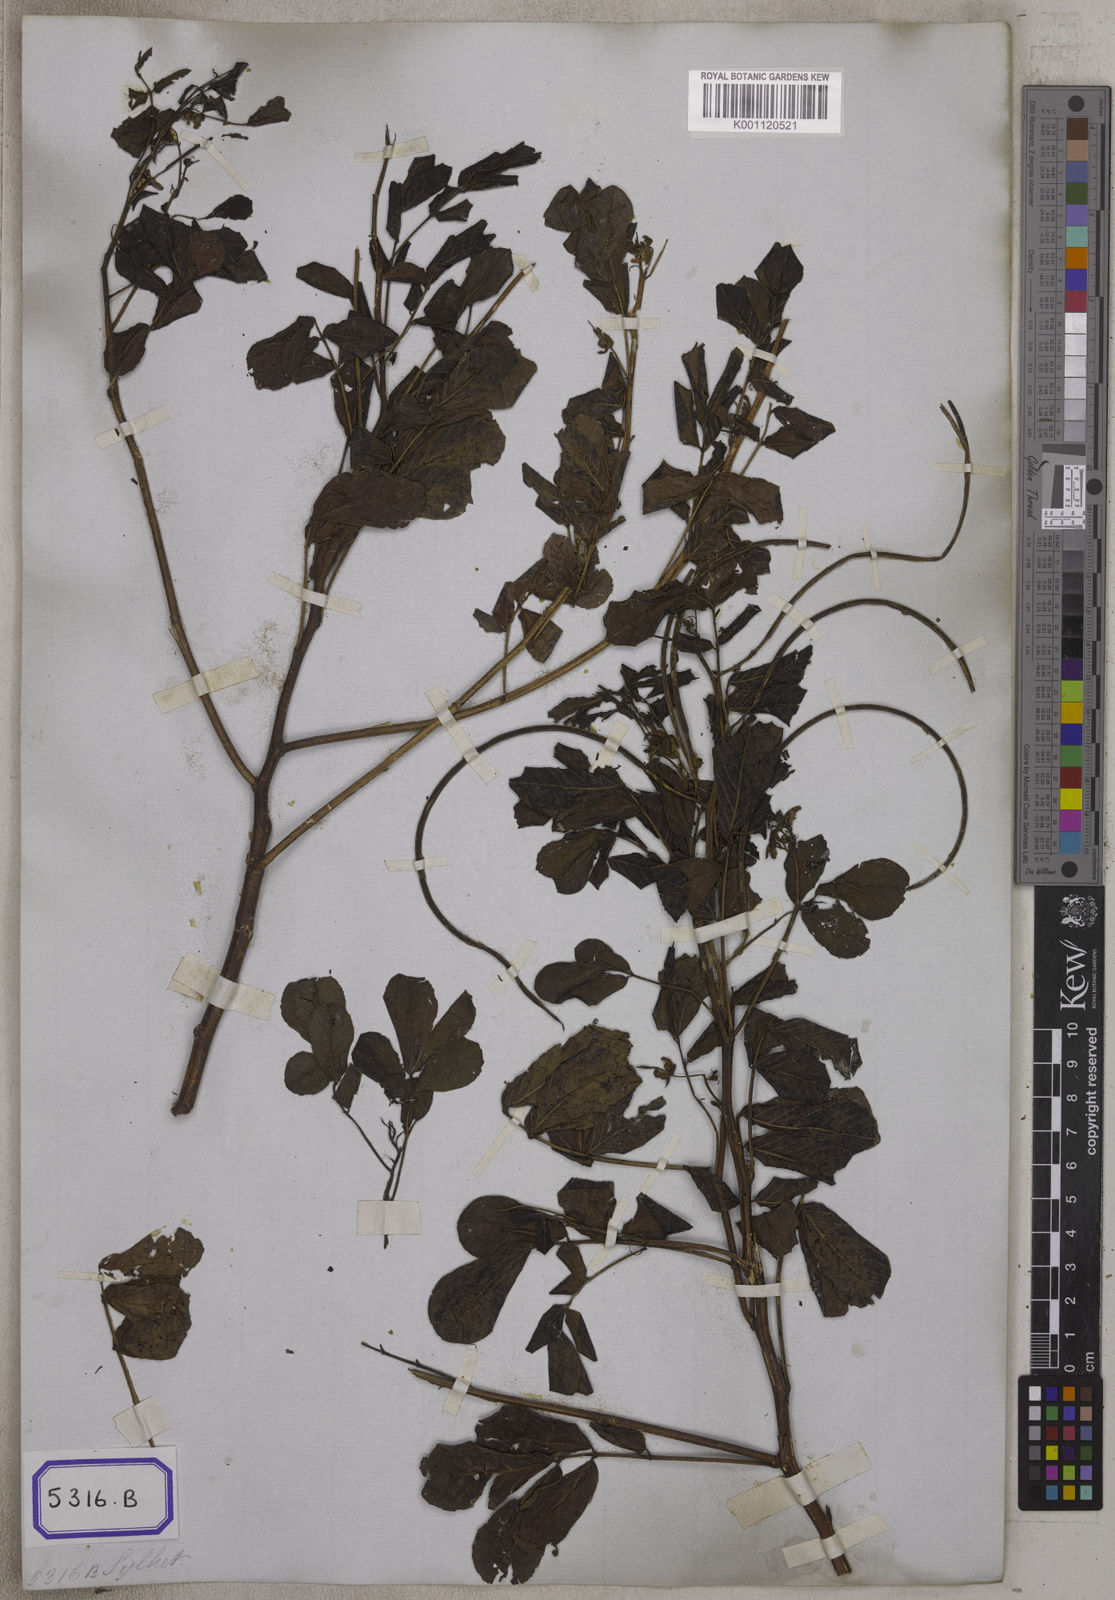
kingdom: Plantae
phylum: Tracheophyta
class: Magnoliopsida
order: Fabales
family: Fabaceae
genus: Senna
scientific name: Senna tora
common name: Sickle senna
